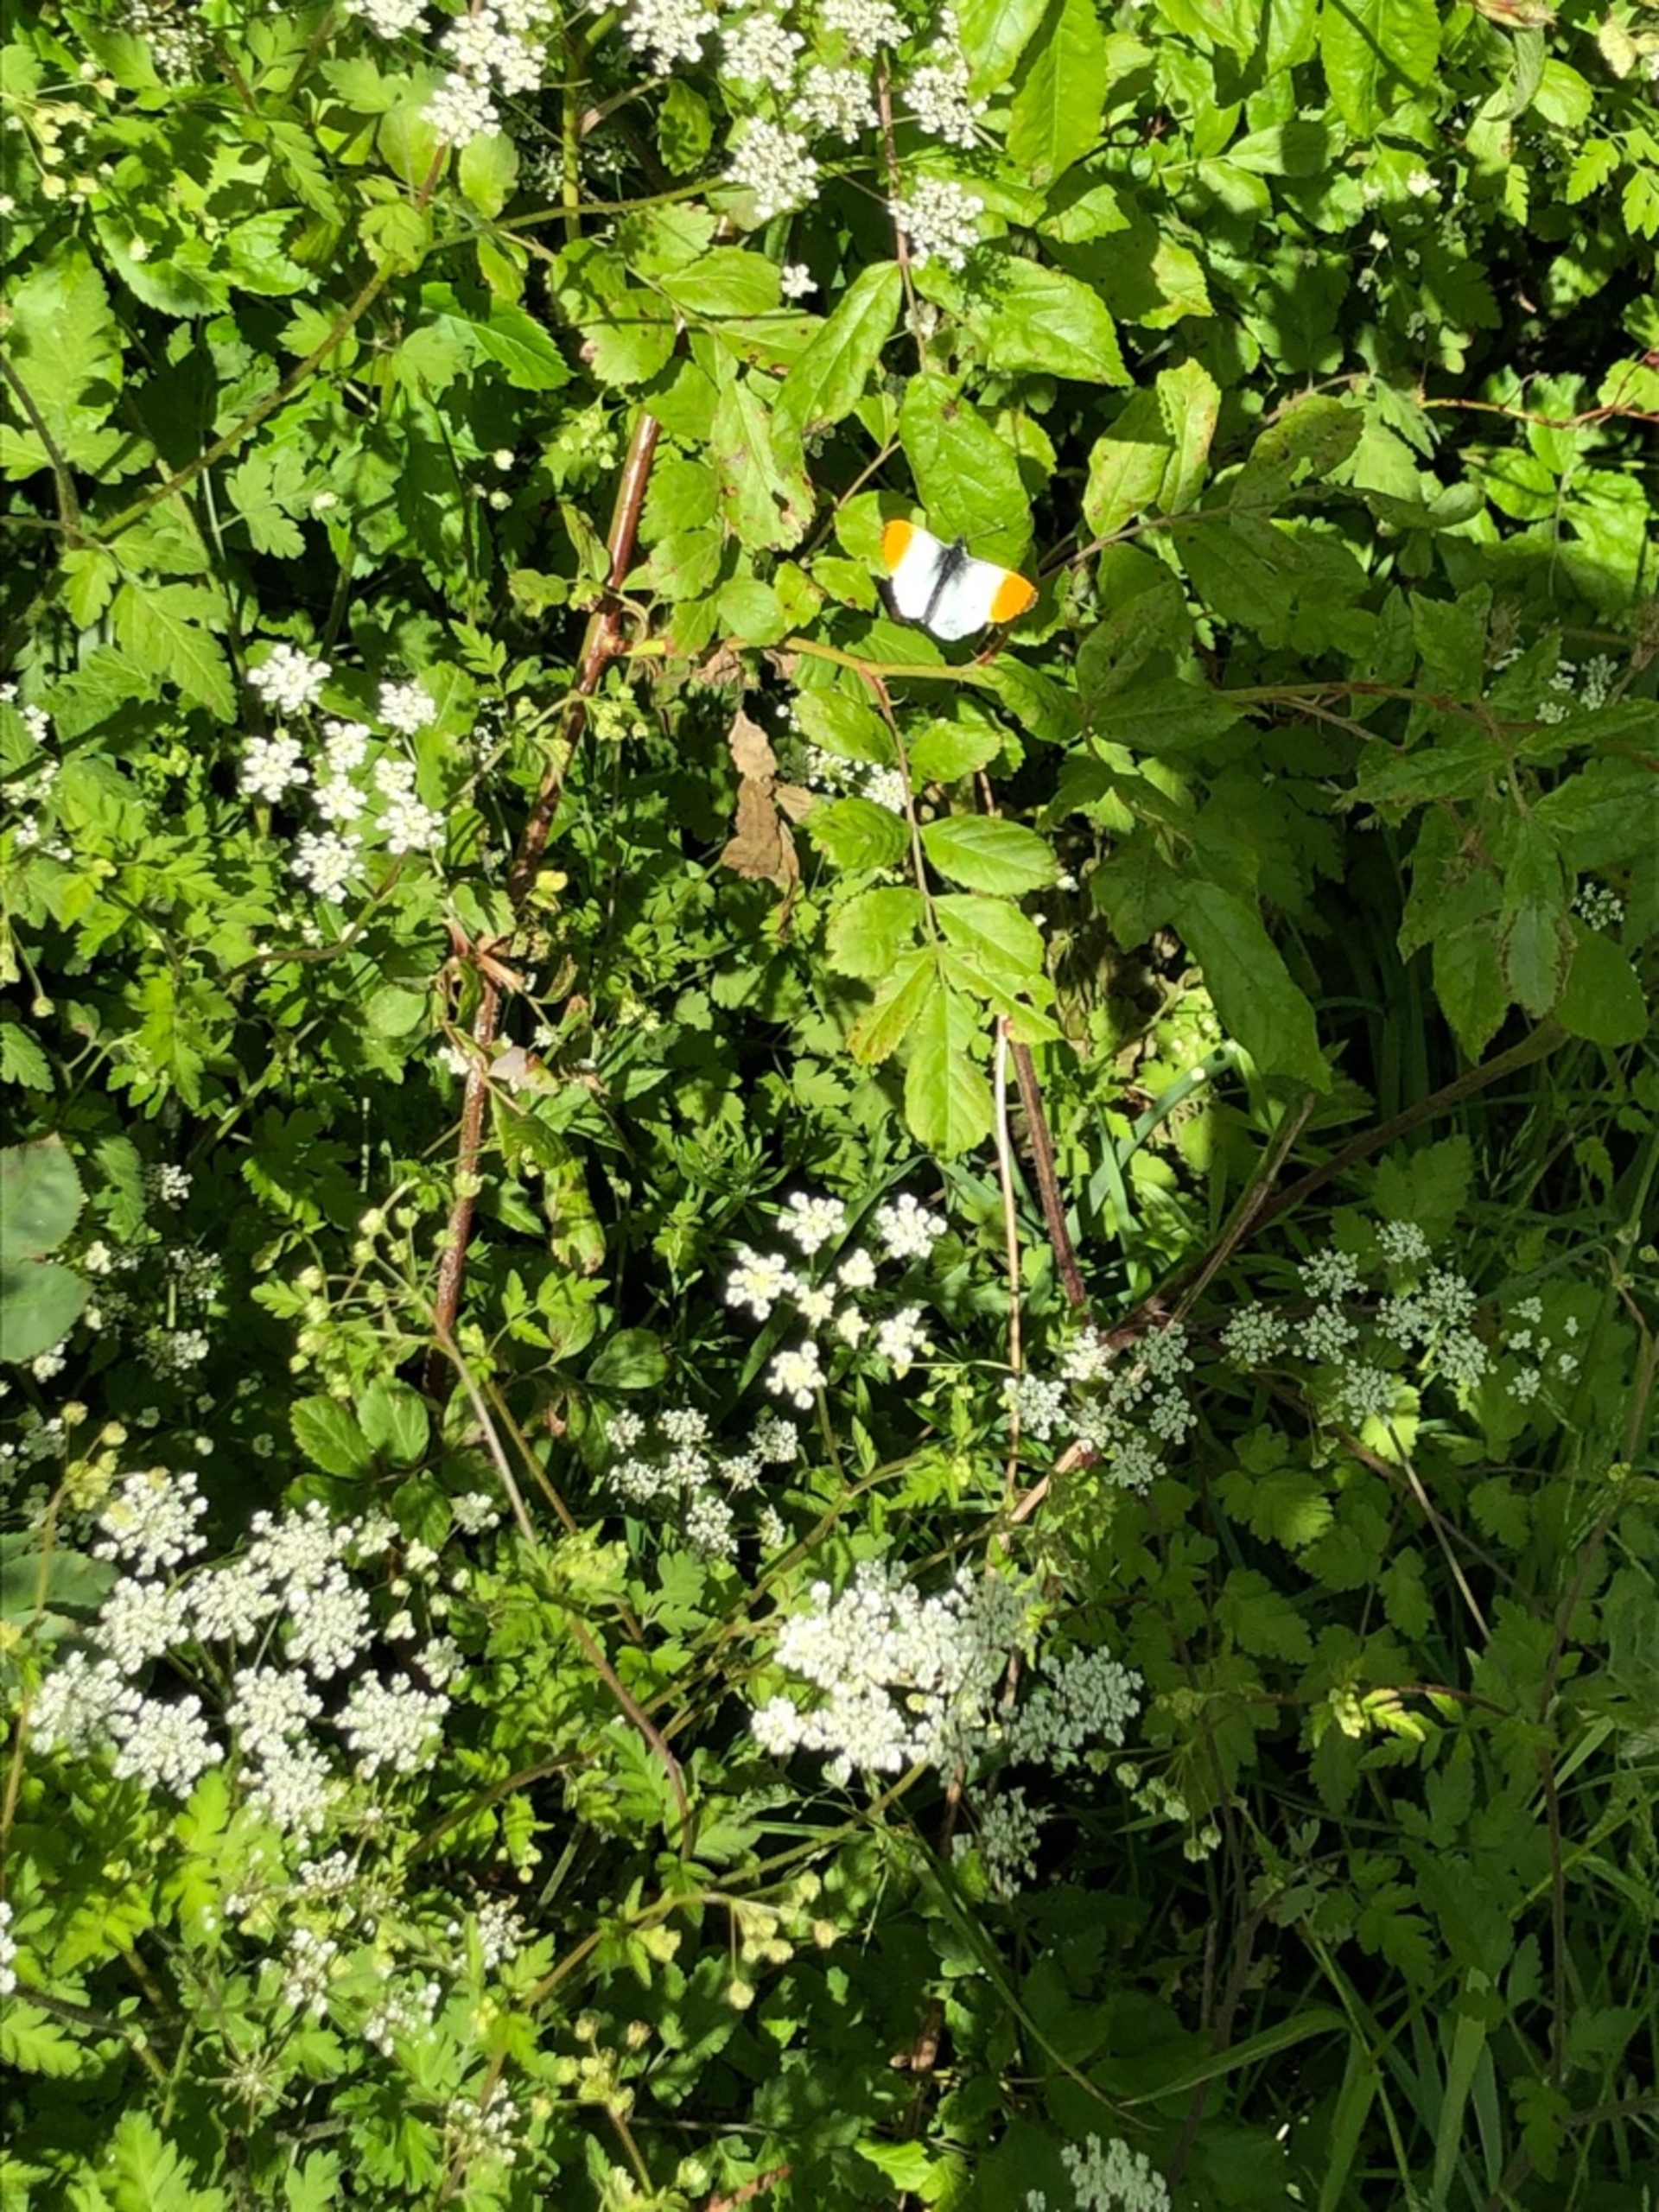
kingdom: Animalia
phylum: Arthropoda
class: Insecta
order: Lepidoptera
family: Pieridae
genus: Anthocharis
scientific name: Anthocharis cardamines
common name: Aurora
